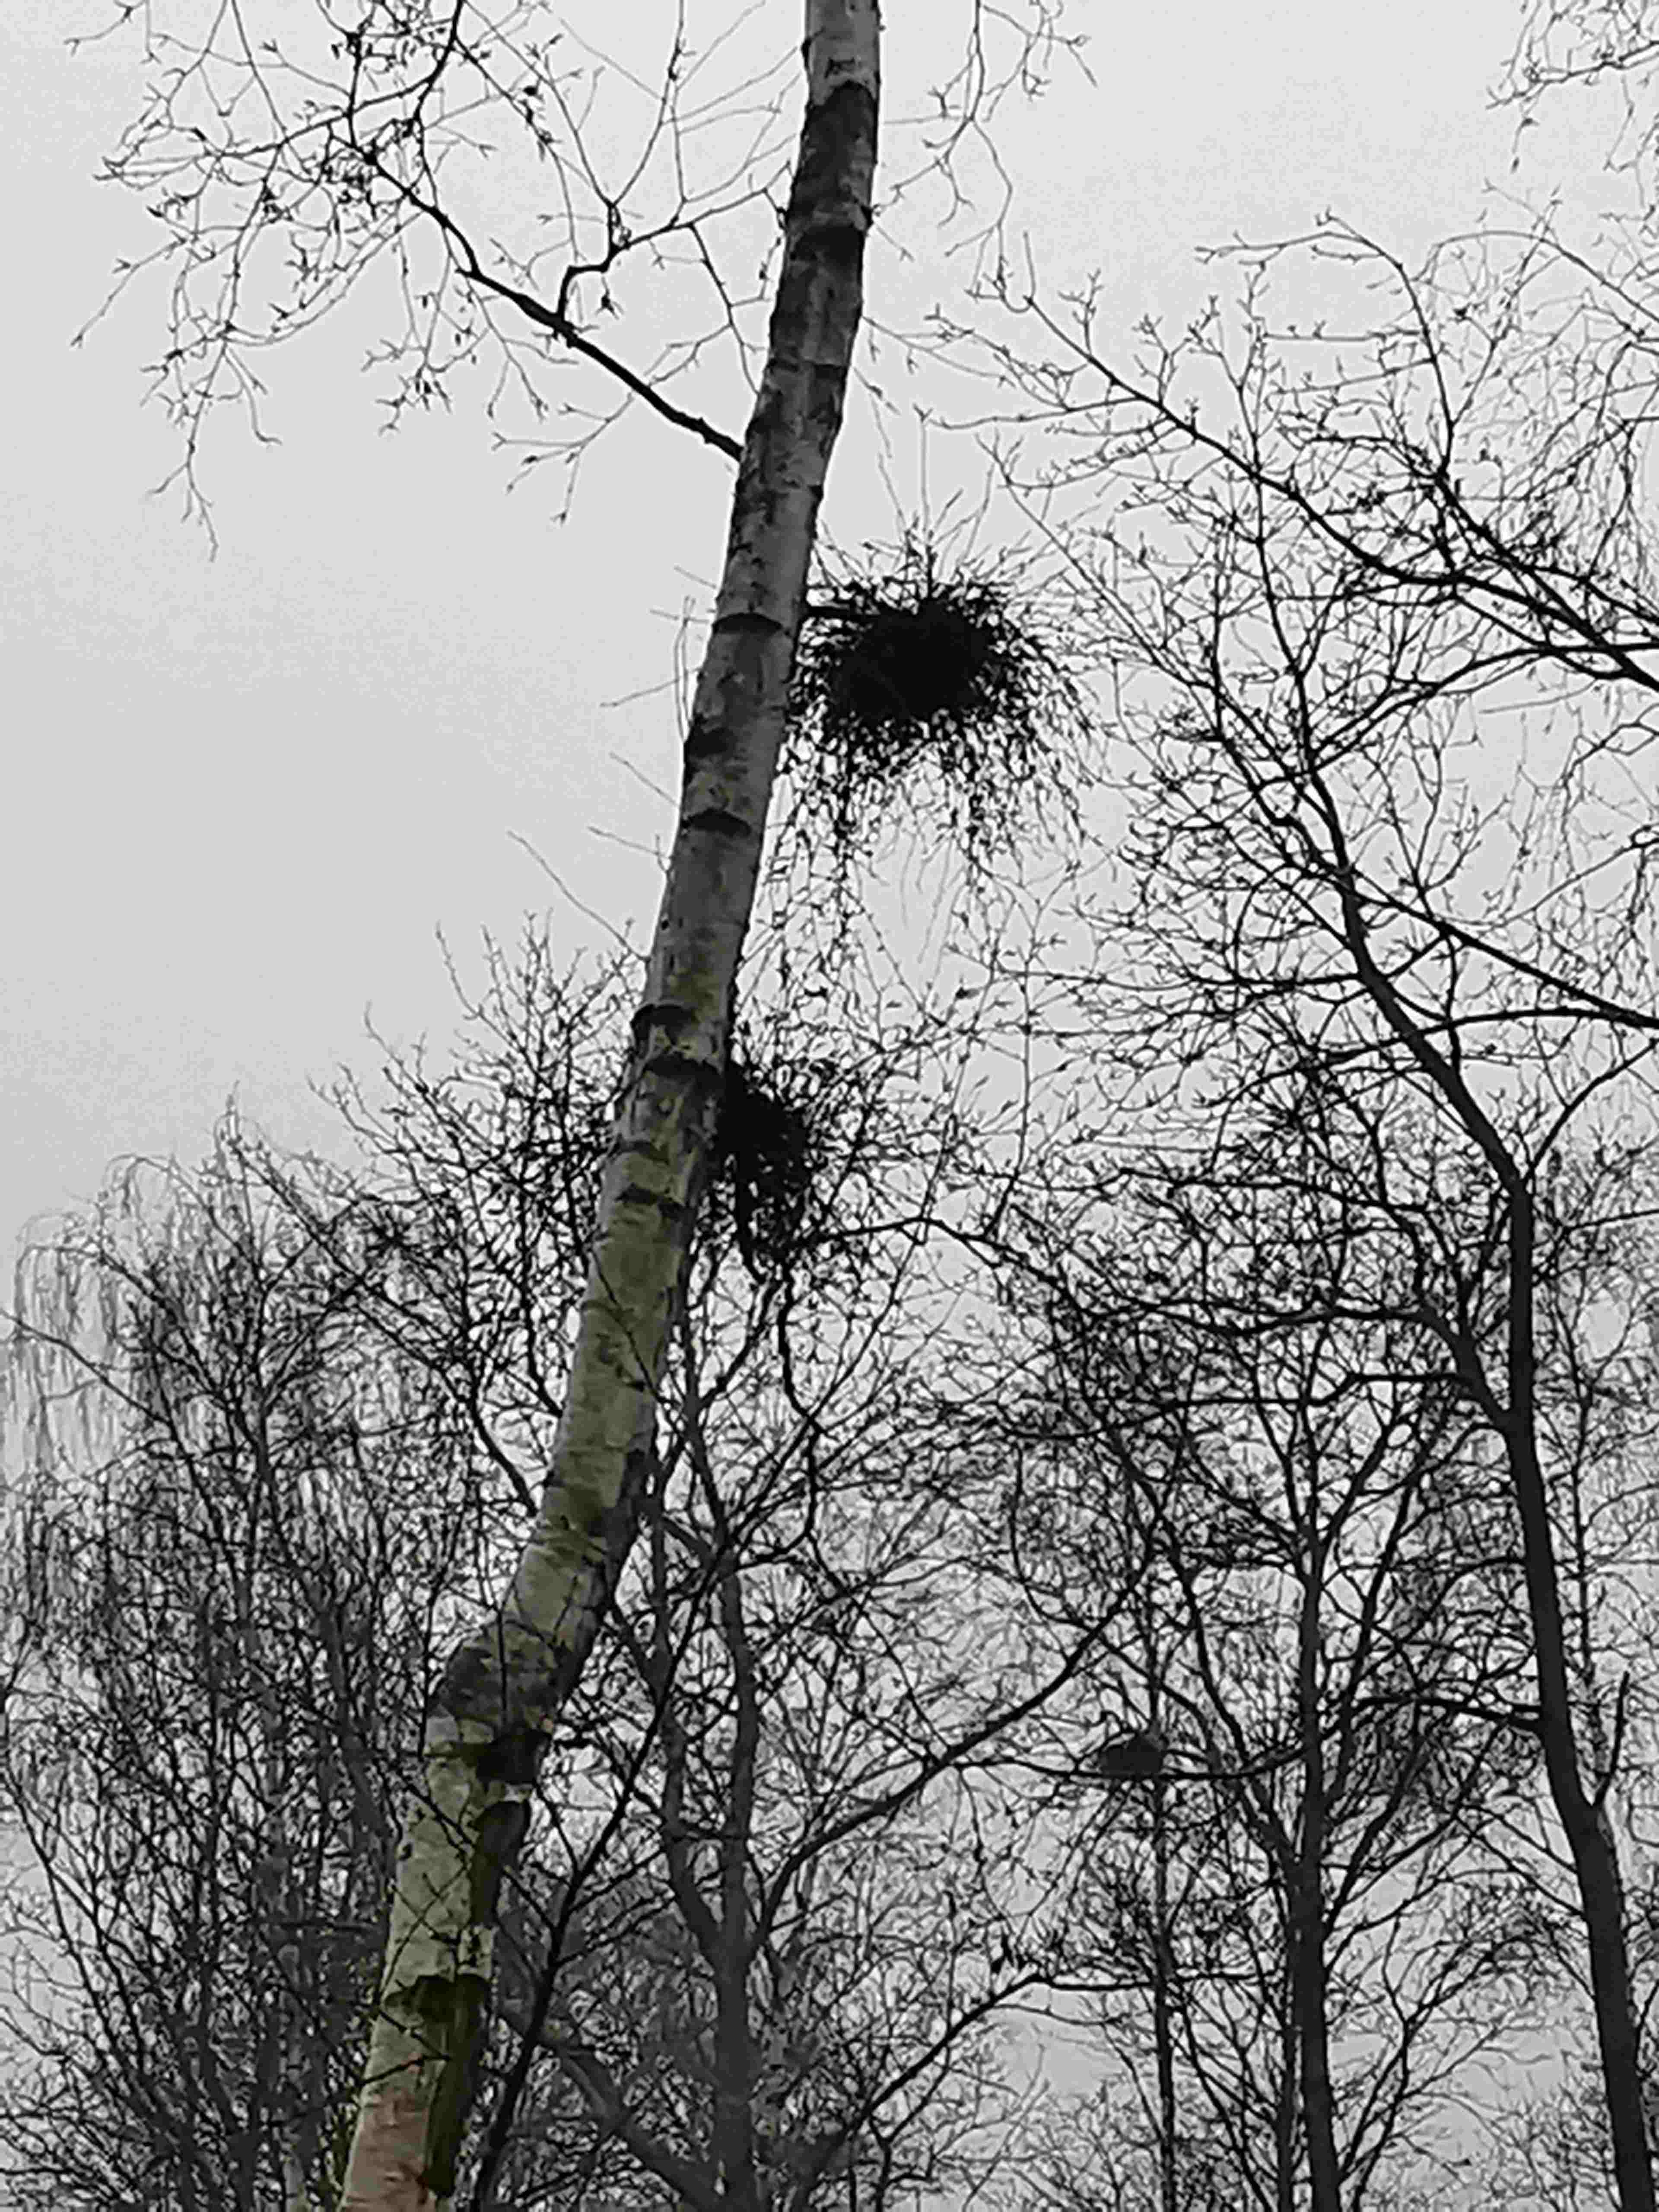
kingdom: Fungi
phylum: Ascomycota
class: Taphrinomycetes
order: Taphrinales
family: Taphrinaceae
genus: Taphrina
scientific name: Taphrina betulina
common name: hekse-sækdug
